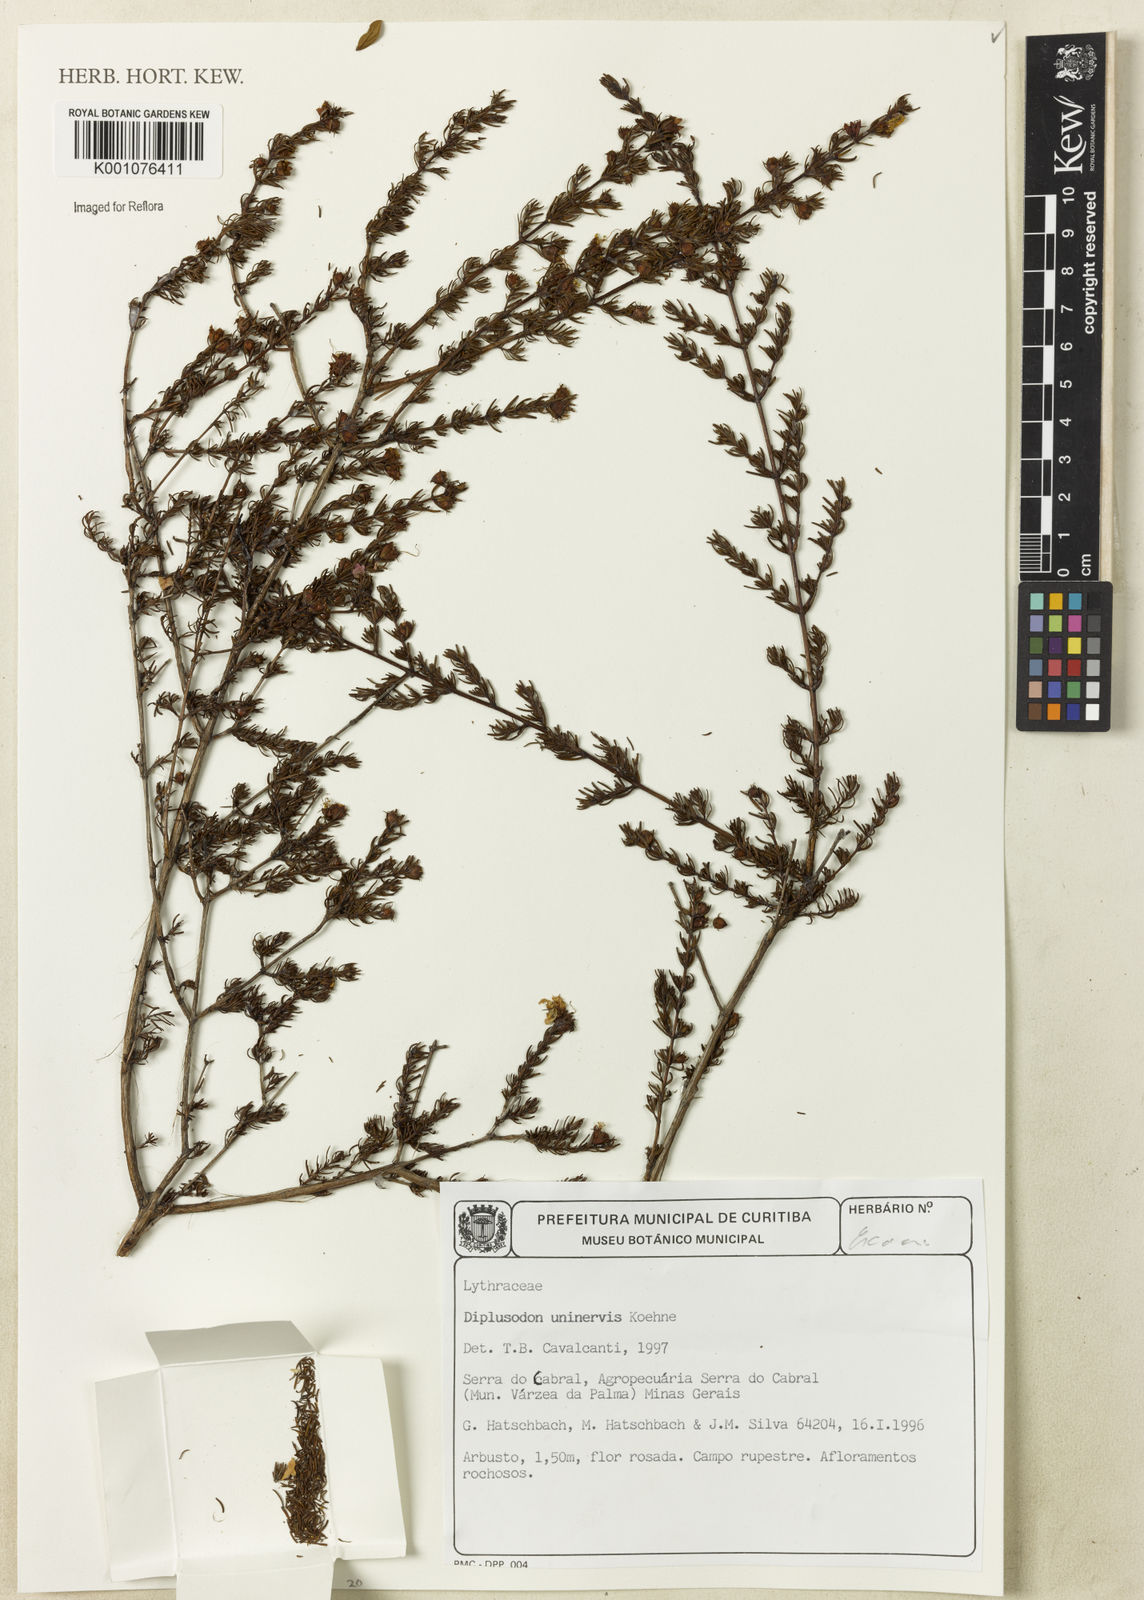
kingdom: Plantae
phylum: Tracheophyta
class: Magnoliopsida
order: Myrtales
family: Lythraceae
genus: Diplusodon
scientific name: Diplusodon uninervius
